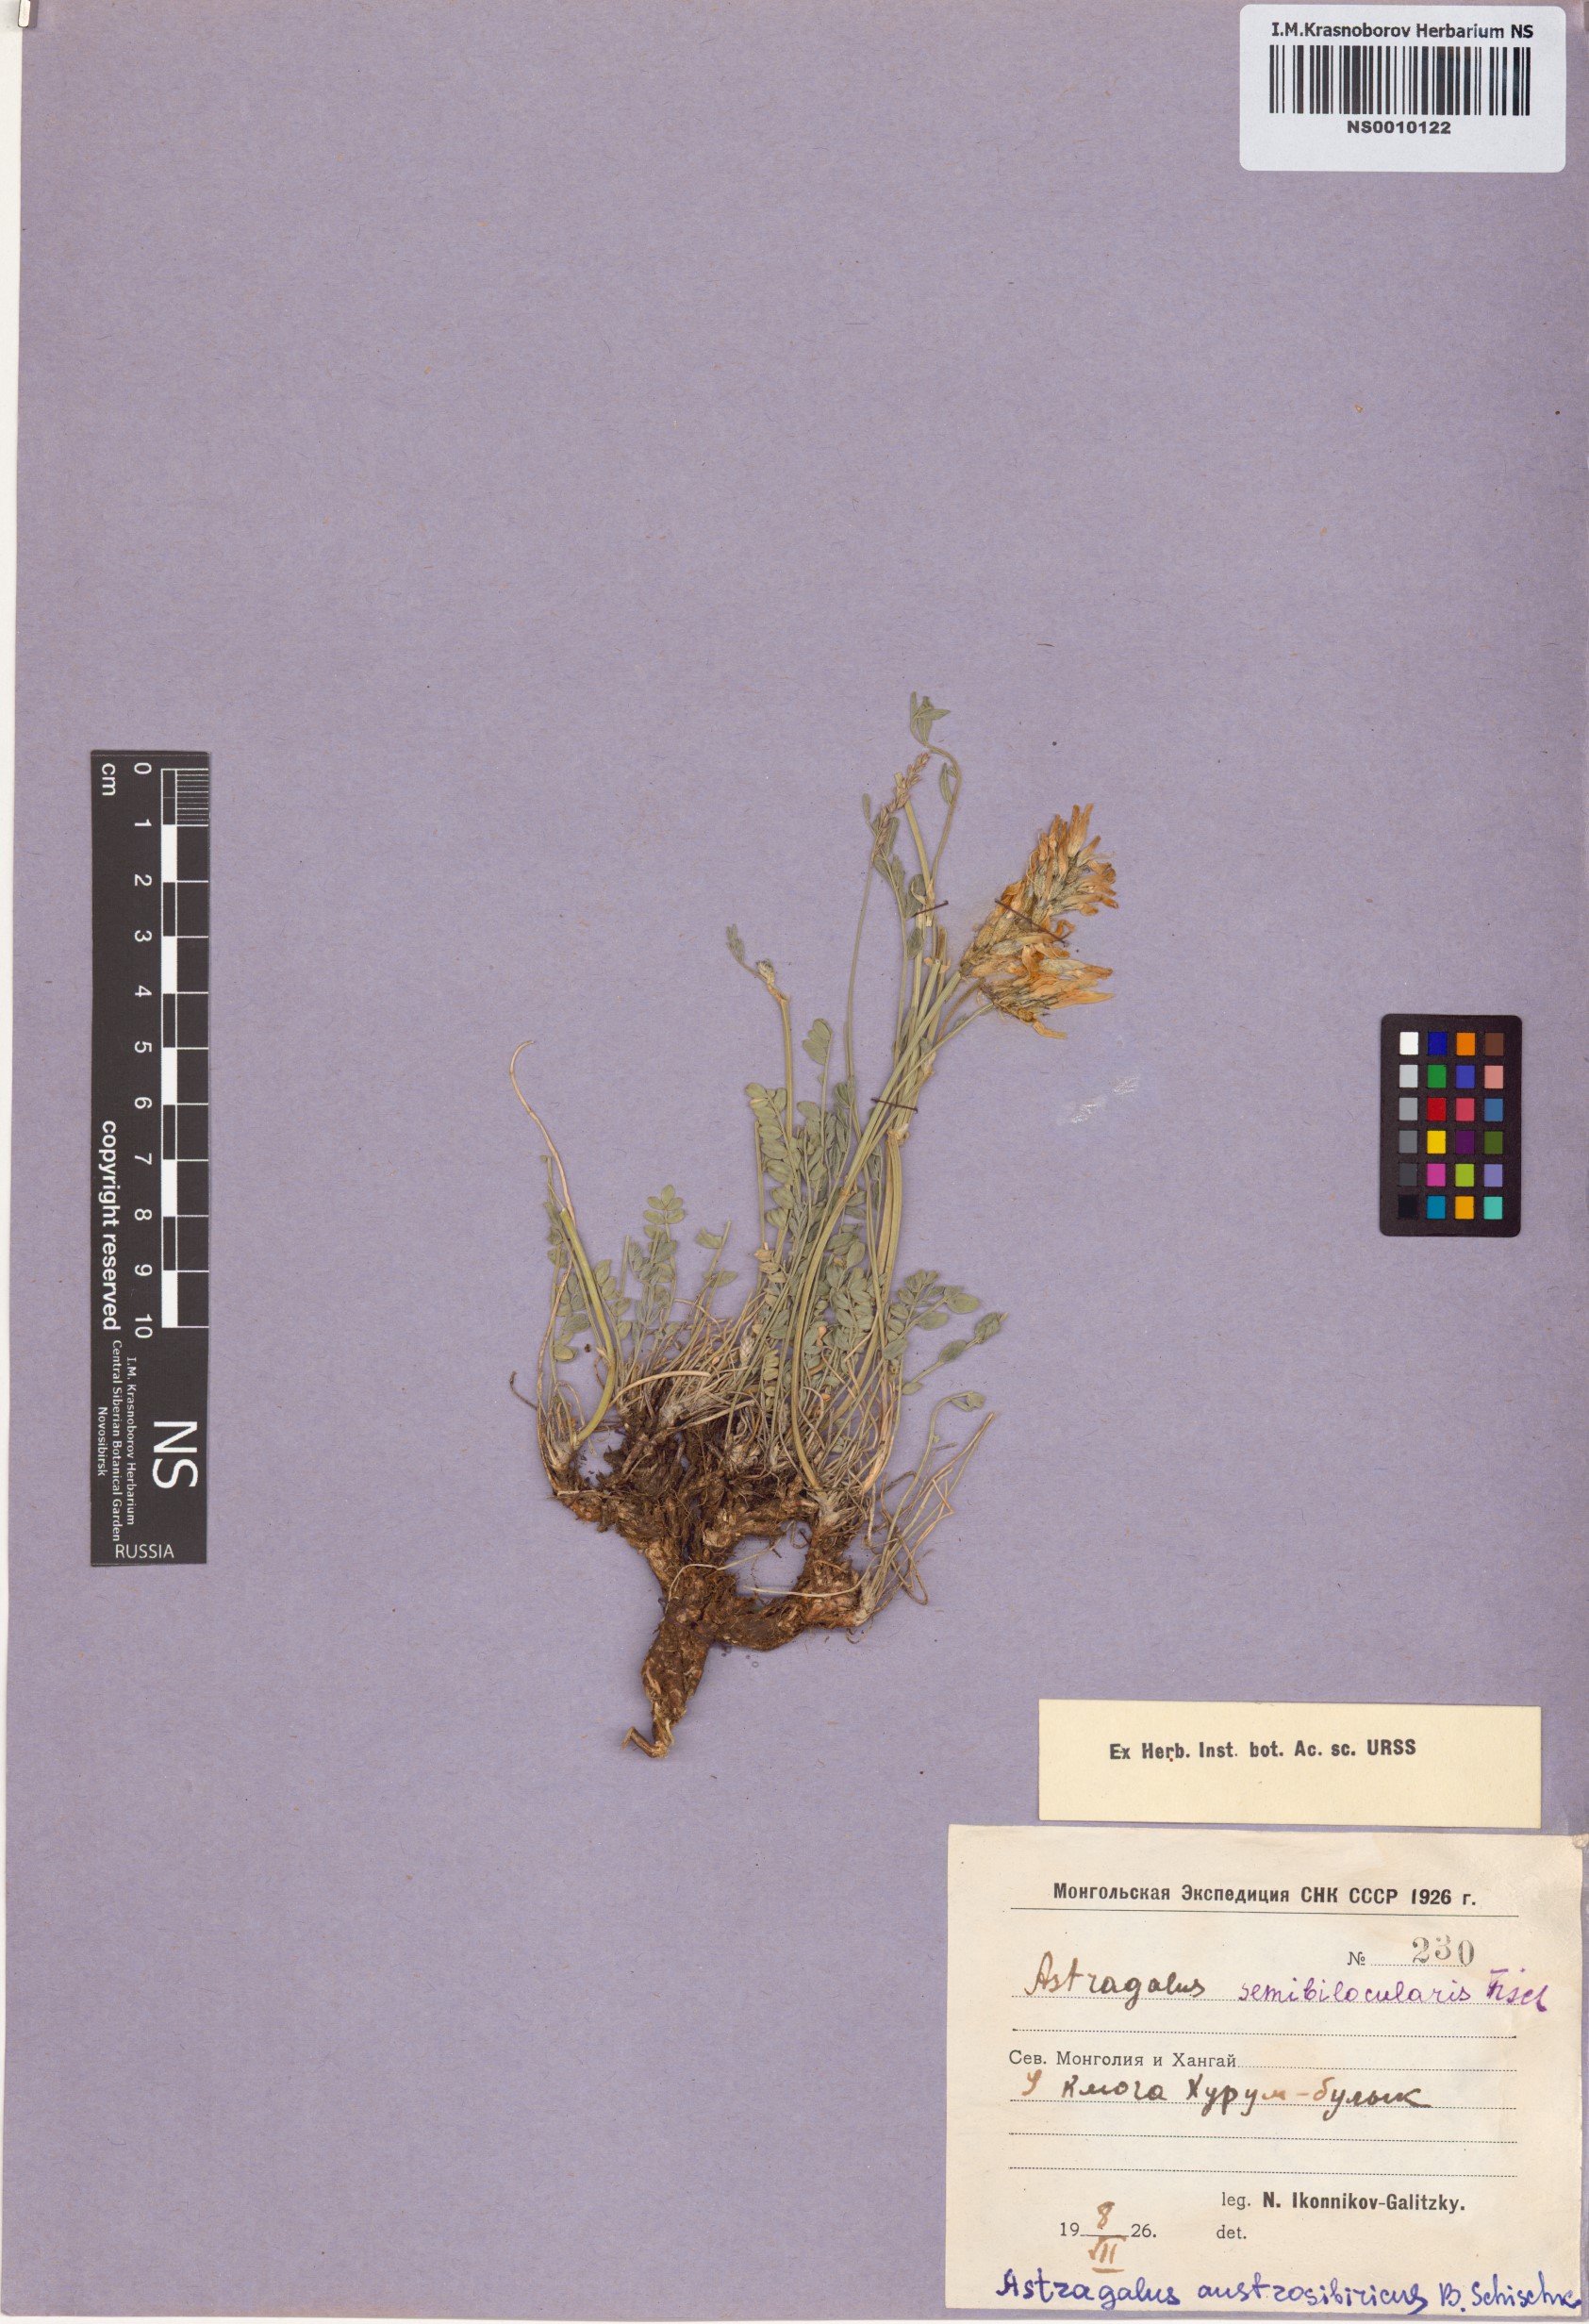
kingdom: Plantae
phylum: Tracheophyta
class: Magnoliopsida
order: Fabales
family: Fabaceae
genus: Astragalus
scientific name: Astragalus laxmannii
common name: Laxmann's milk-vetch
